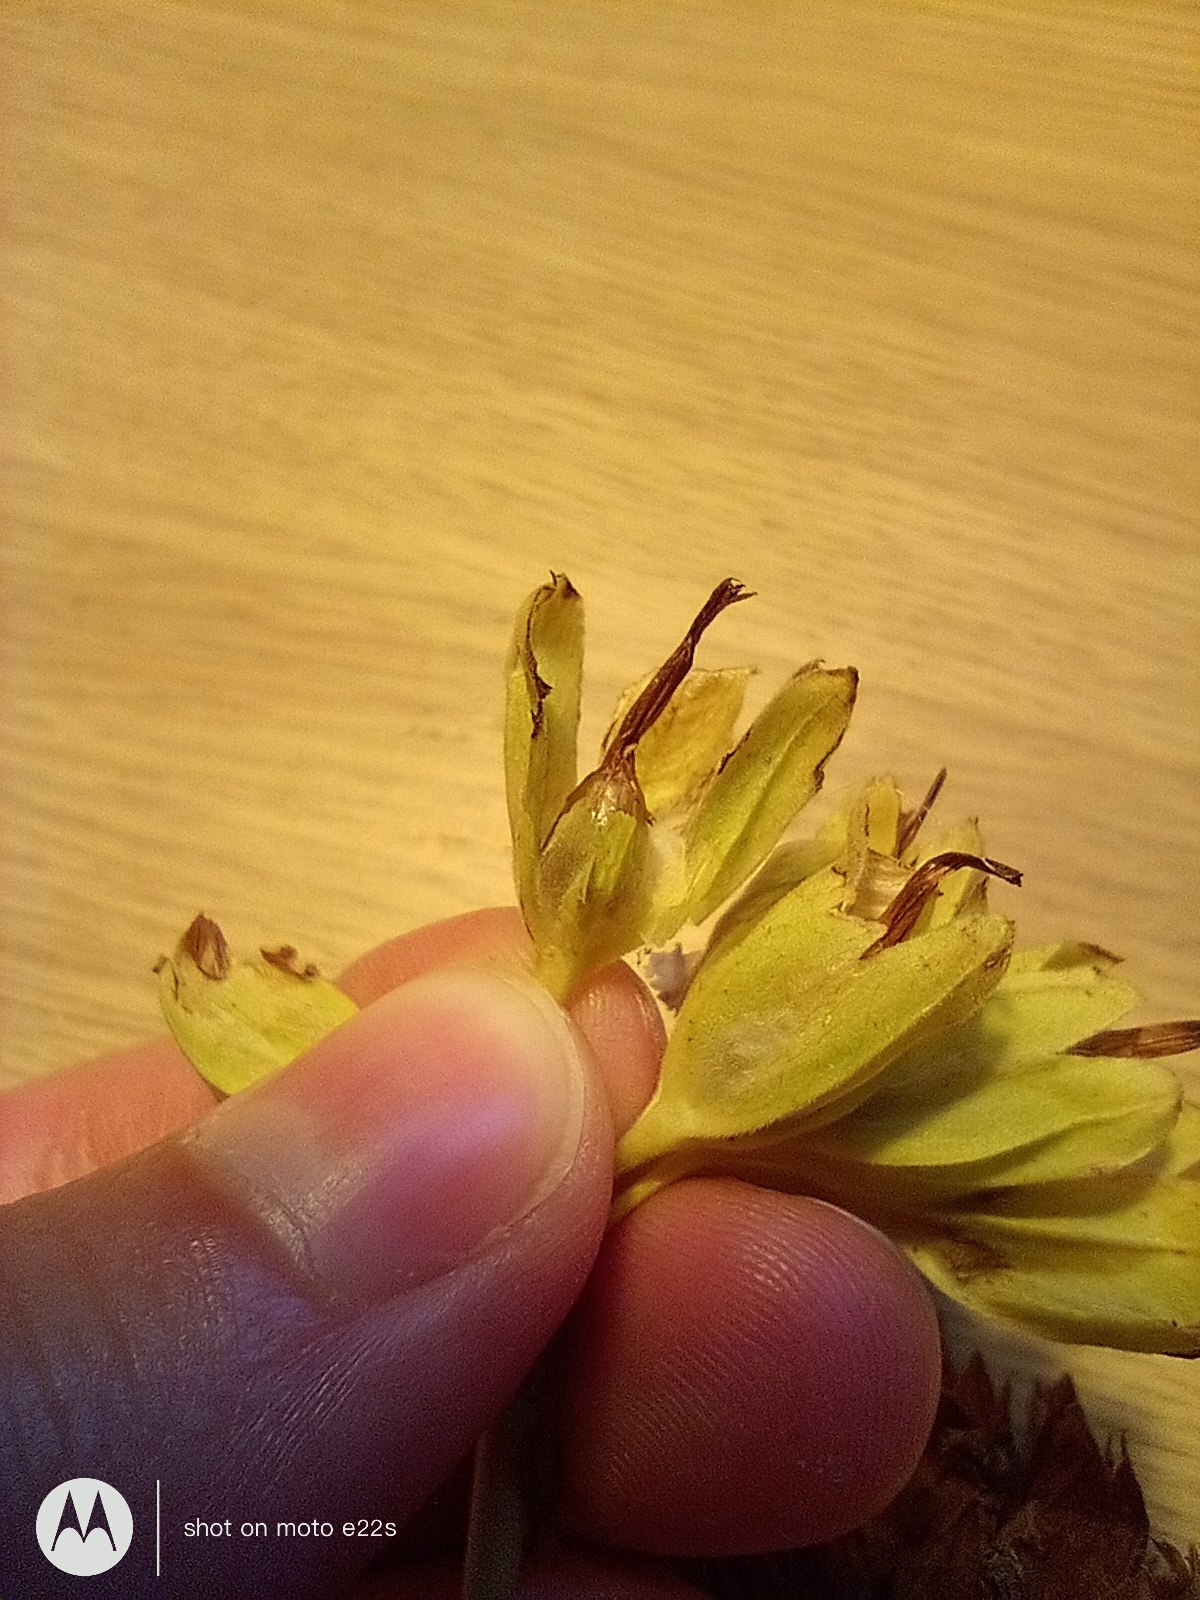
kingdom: Plantae
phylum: Tracheophyta
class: Magnoliopsida
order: Ericales
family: Primulaceae
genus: Primula
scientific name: Primula veris
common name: Hulkravet kodriver
